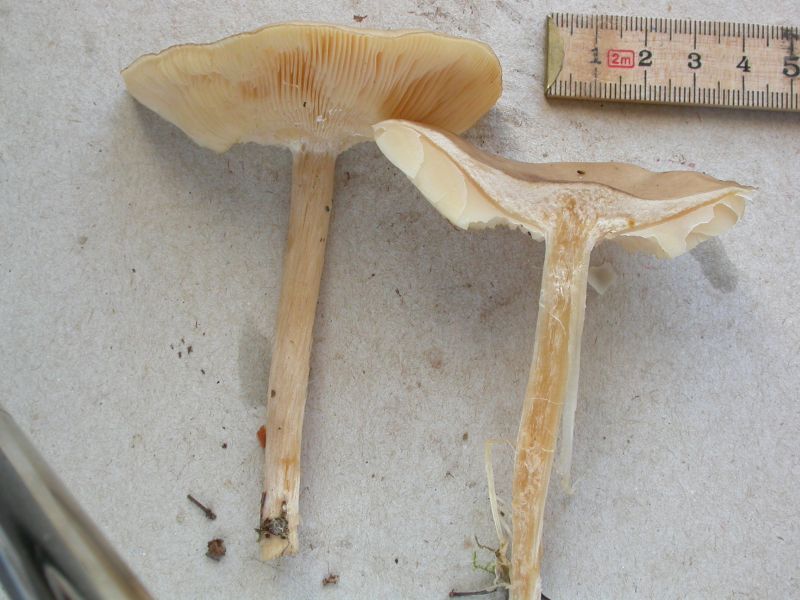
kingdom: Fungi
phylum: Basidiomycota
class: Agaricomycetes
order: Agaricales
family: Tricholomataceae
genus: Melanoleuca
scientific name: Melanoleuca cognata
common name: gyldengrå munkehat
